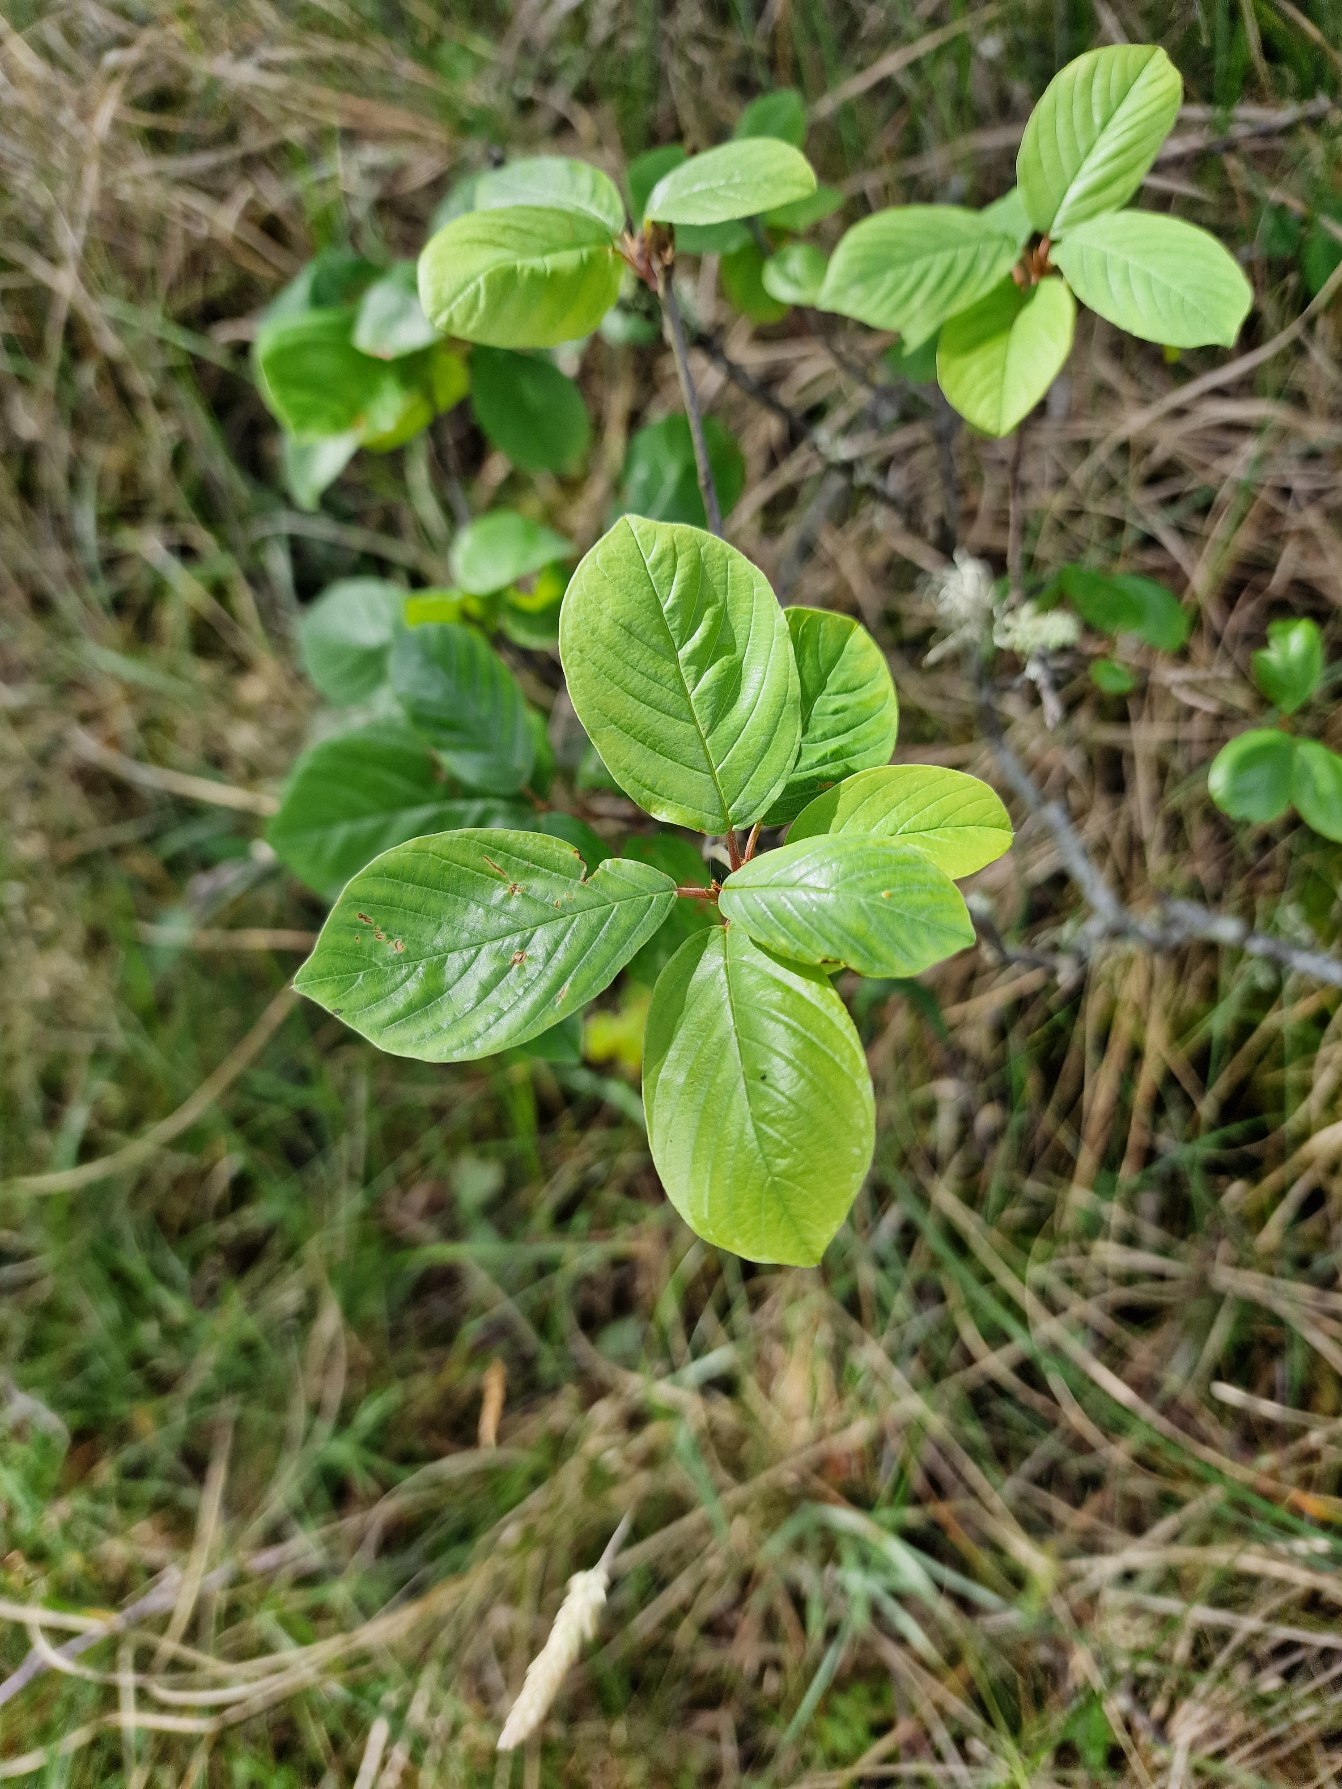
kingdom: Plantae
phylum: Tracheophyta
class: Magnoliopsida
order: Rosales
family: Rhamnaceae
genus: Frangula
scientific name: Frangula alnus
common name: Tørst
